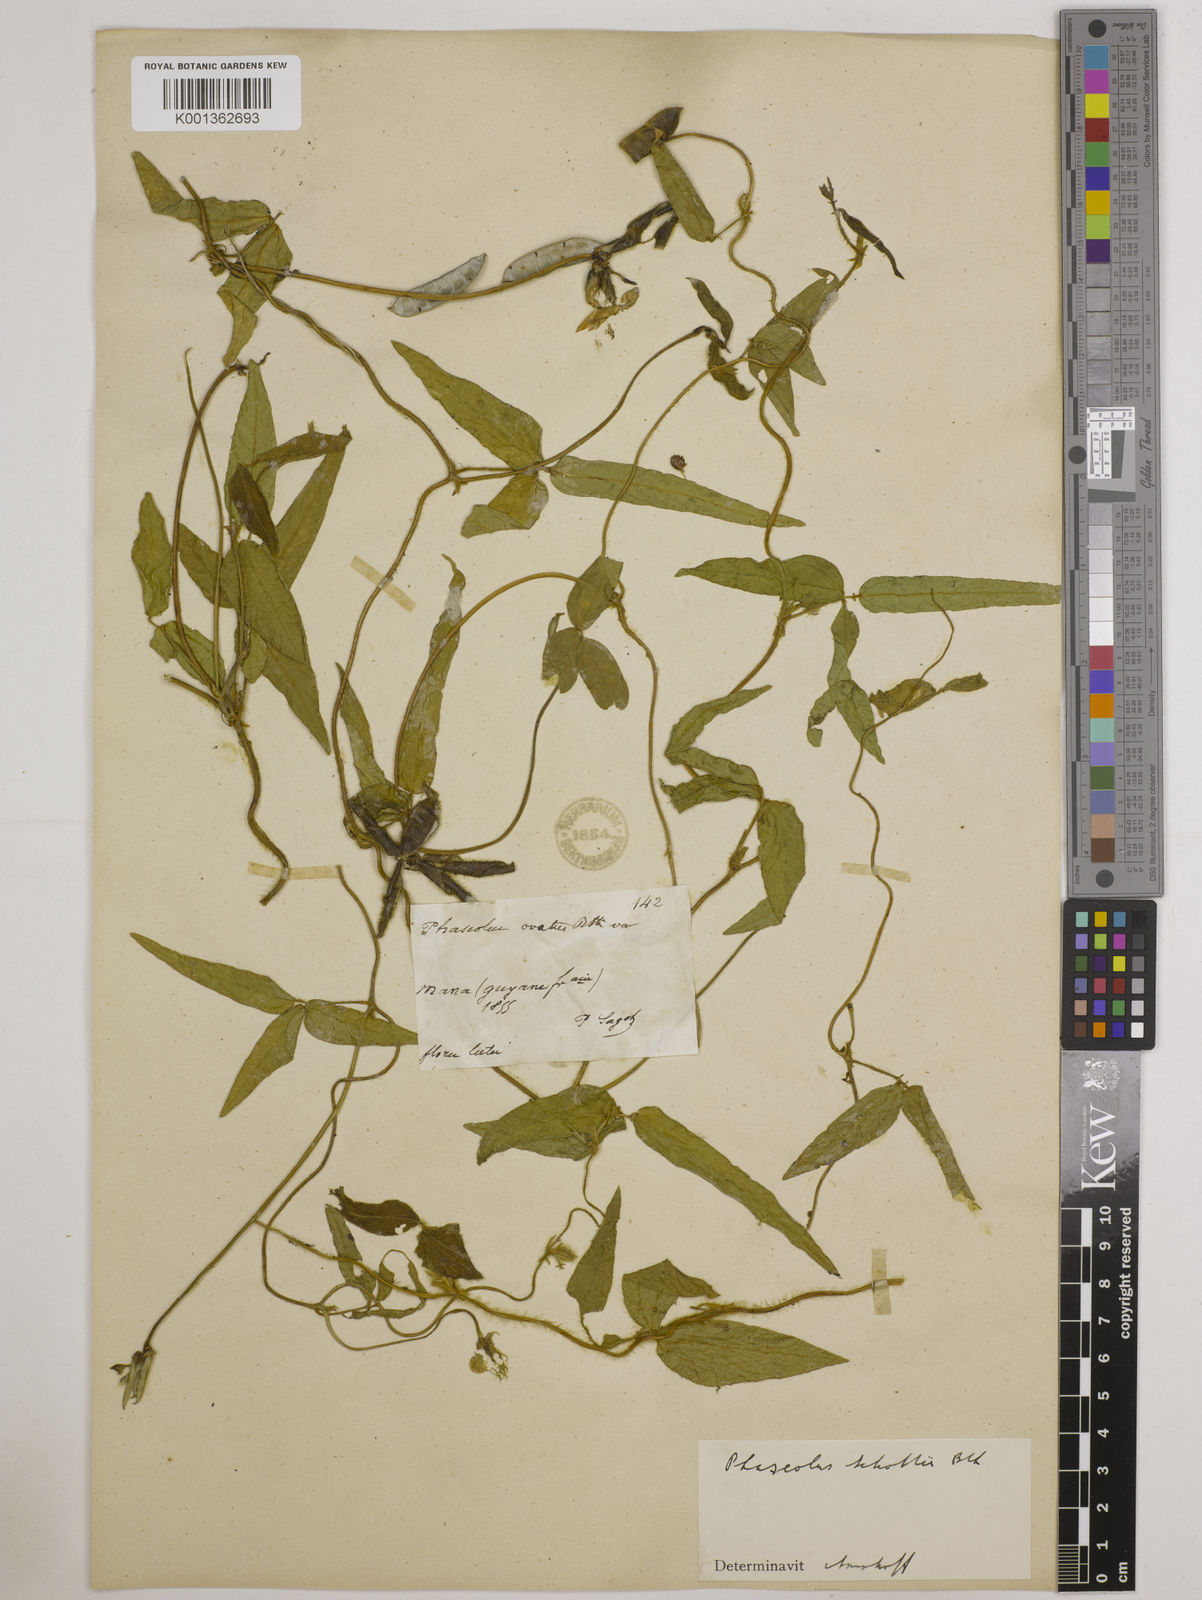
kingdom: Plantae
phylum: Tracheophyta
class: Magnoliopsida
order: Fabales
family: Fabaceae
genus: Vigna
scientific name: Vigna longifolia
